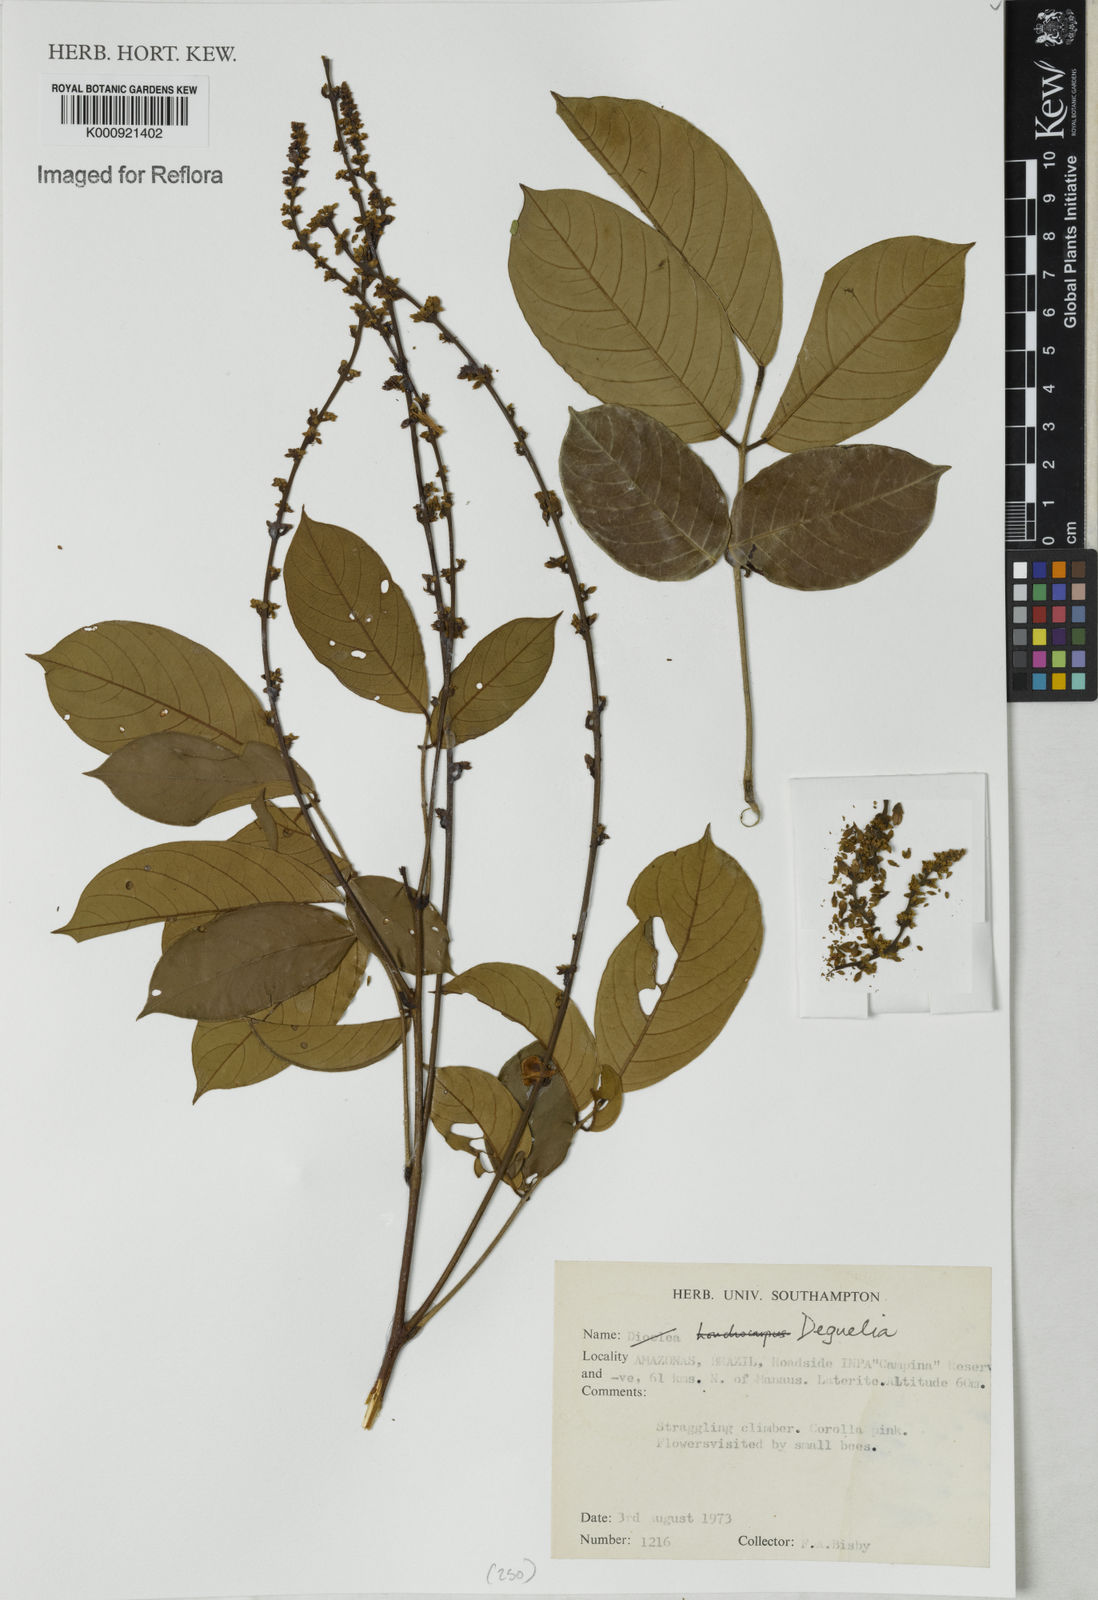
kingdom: Plantae
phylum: Tracheophyta
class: Magnoliopsida
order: Fabales
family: Fabaceae
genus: Deguelia
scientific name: Deguelia
